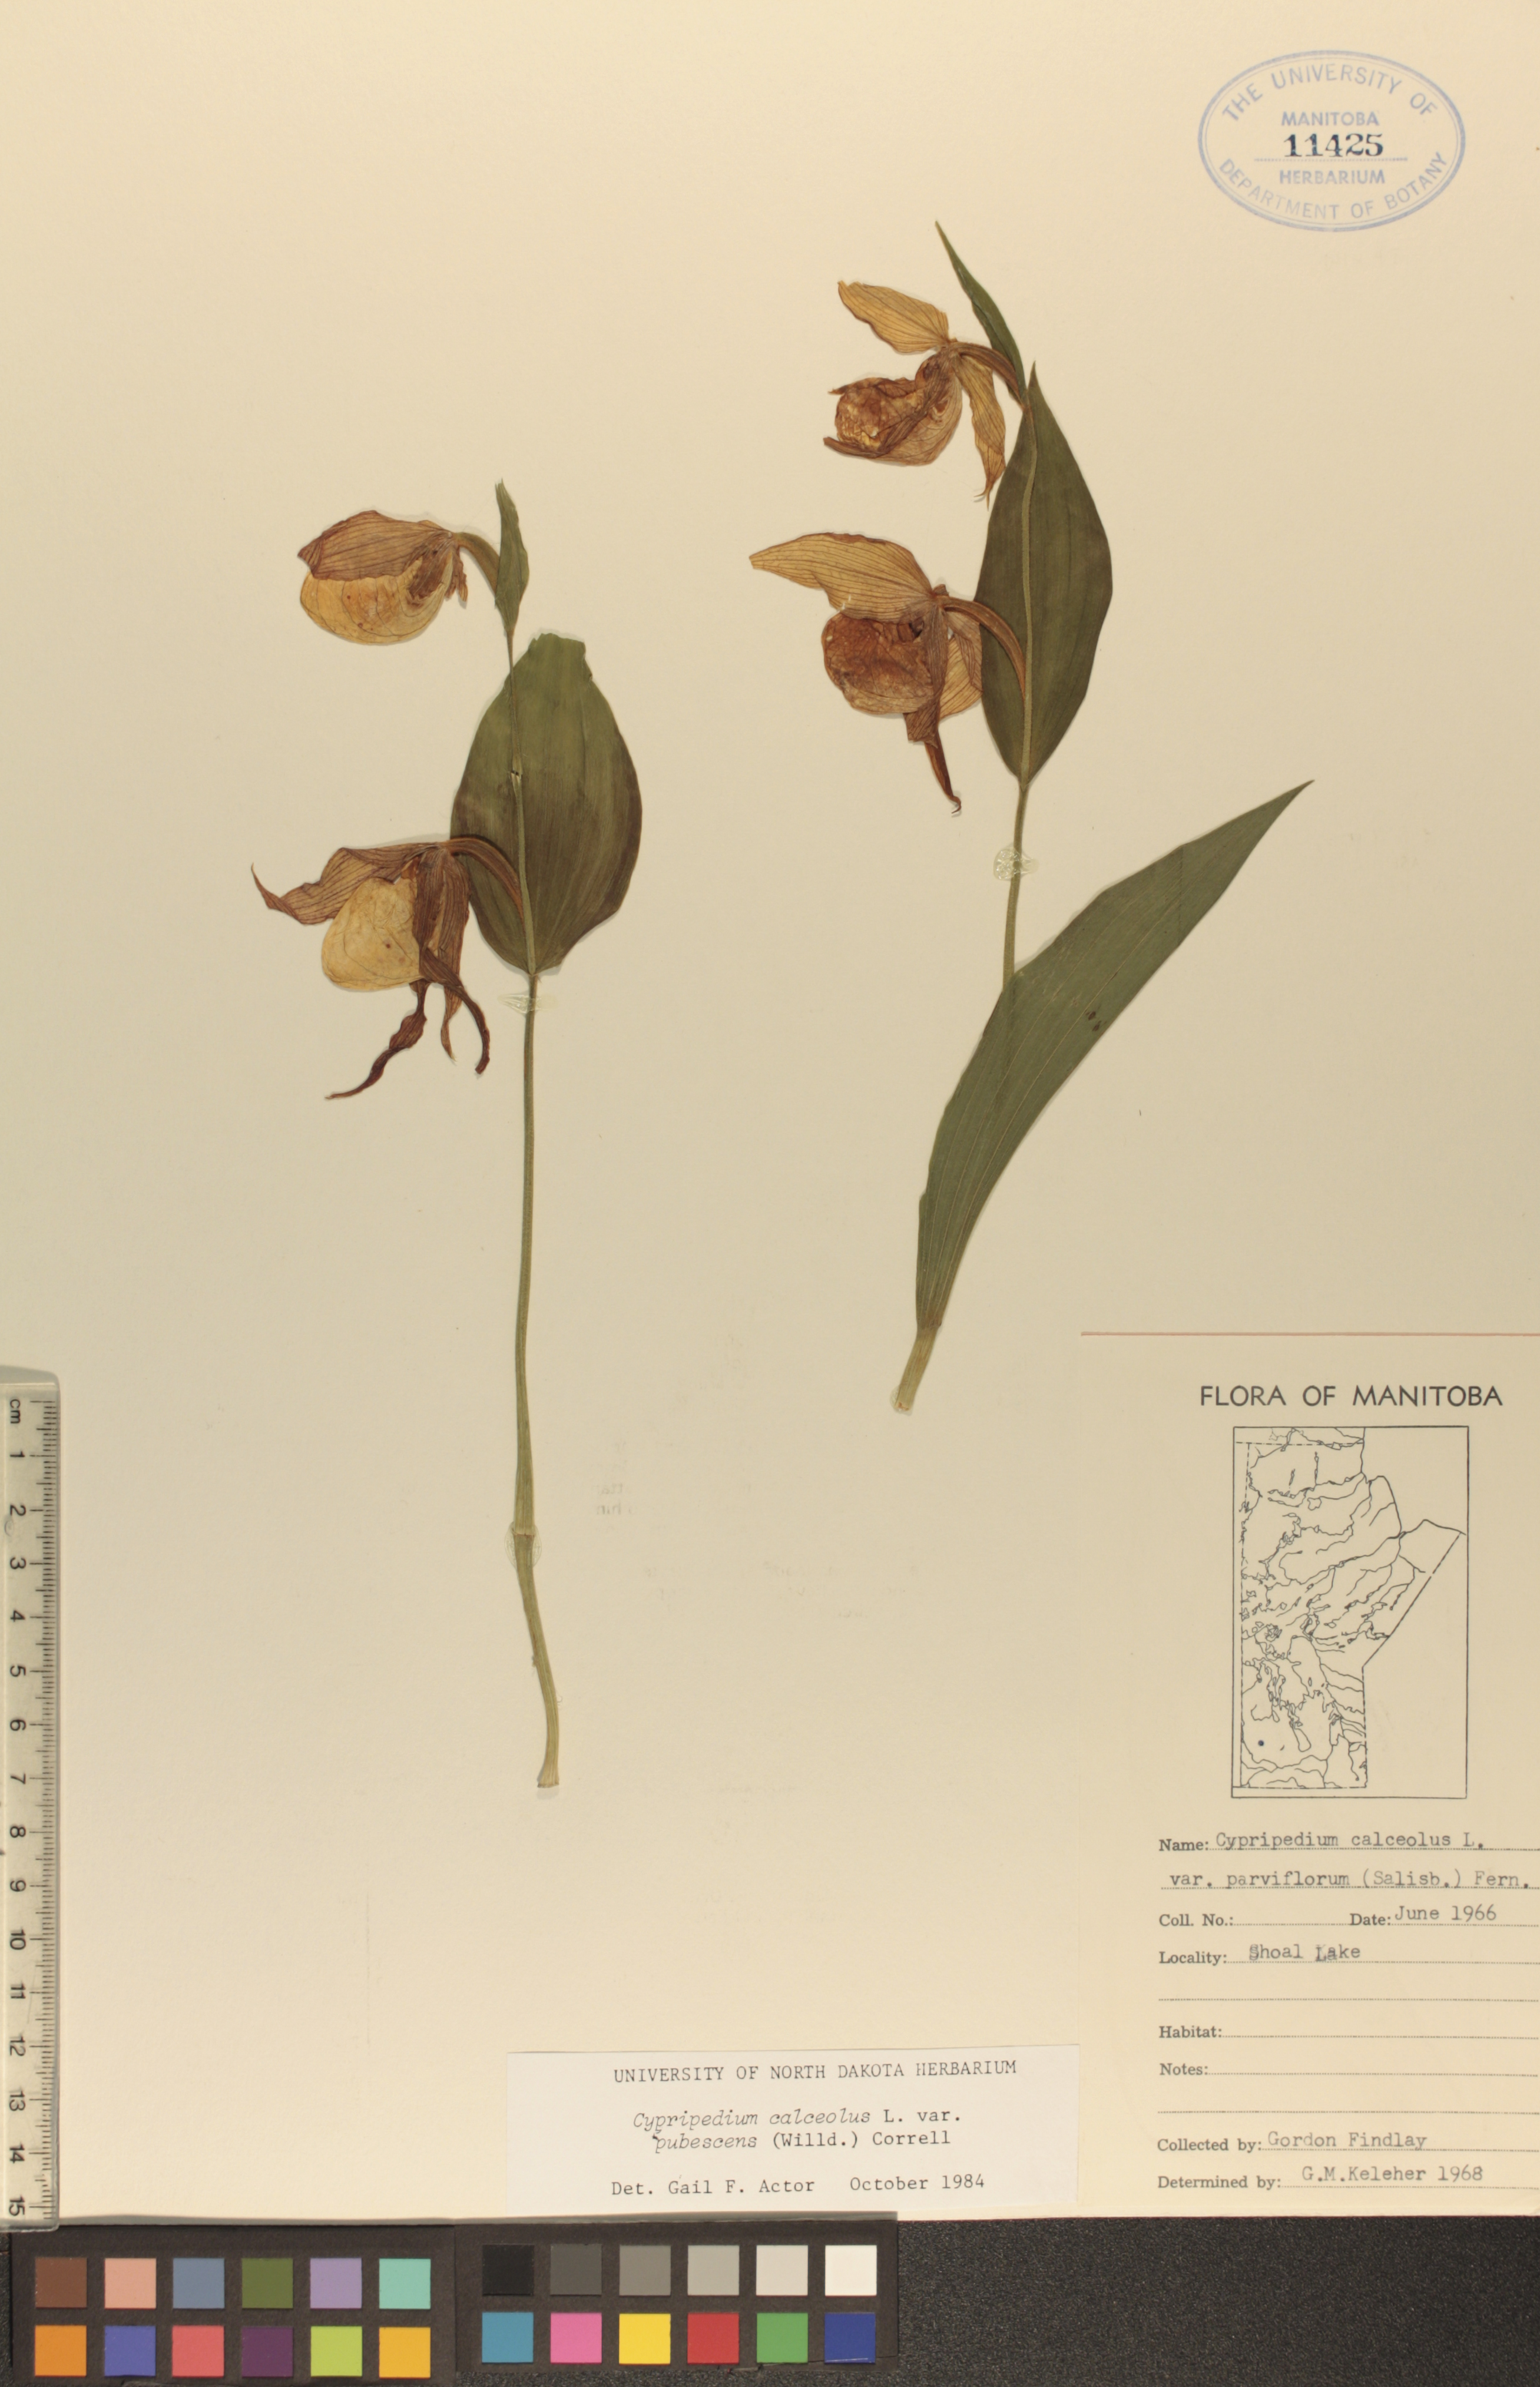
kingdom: Plantae
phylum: Tracheophyta
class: Liliopsida
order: Asparagales
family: Orchidaceae
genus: Cypripedium
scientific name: Cypripedium parviflorum
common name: American yellow lady's-slipper
